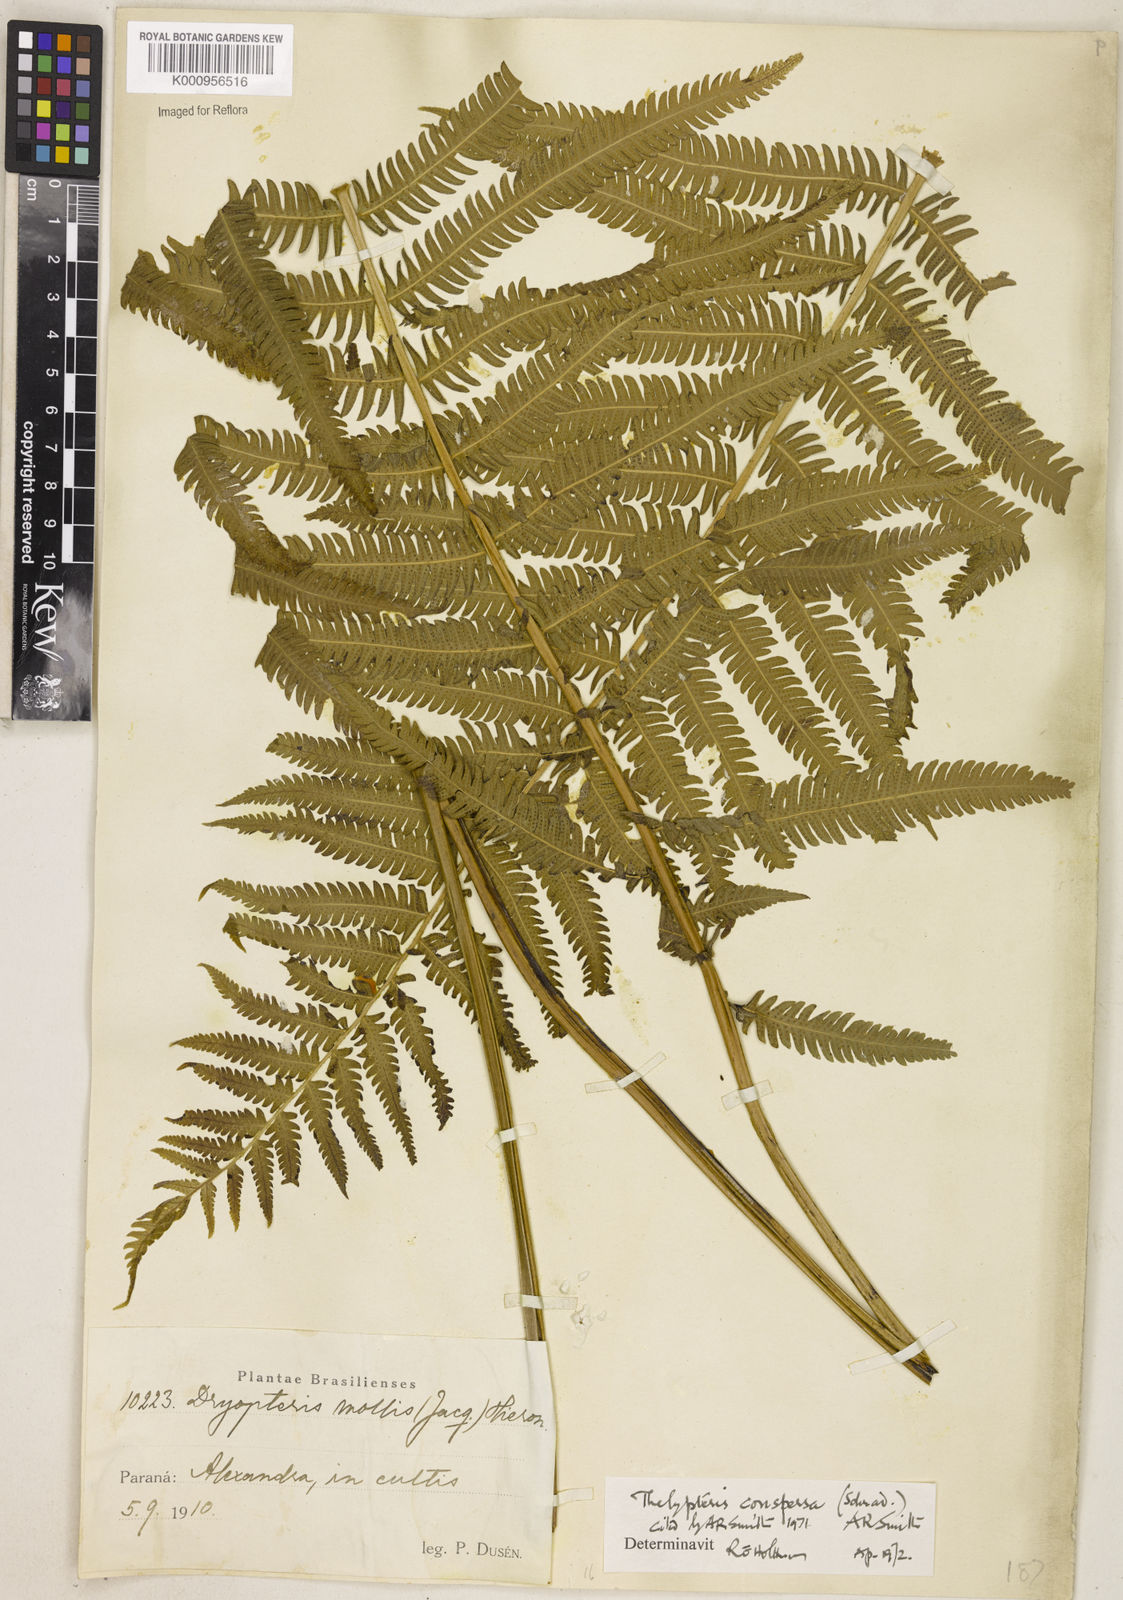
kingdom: Plantae
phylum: Tracheophyta
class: Polypodiopsida
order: Polypodiales
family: Thelypteridaceae
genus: Christella
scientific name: Christella
